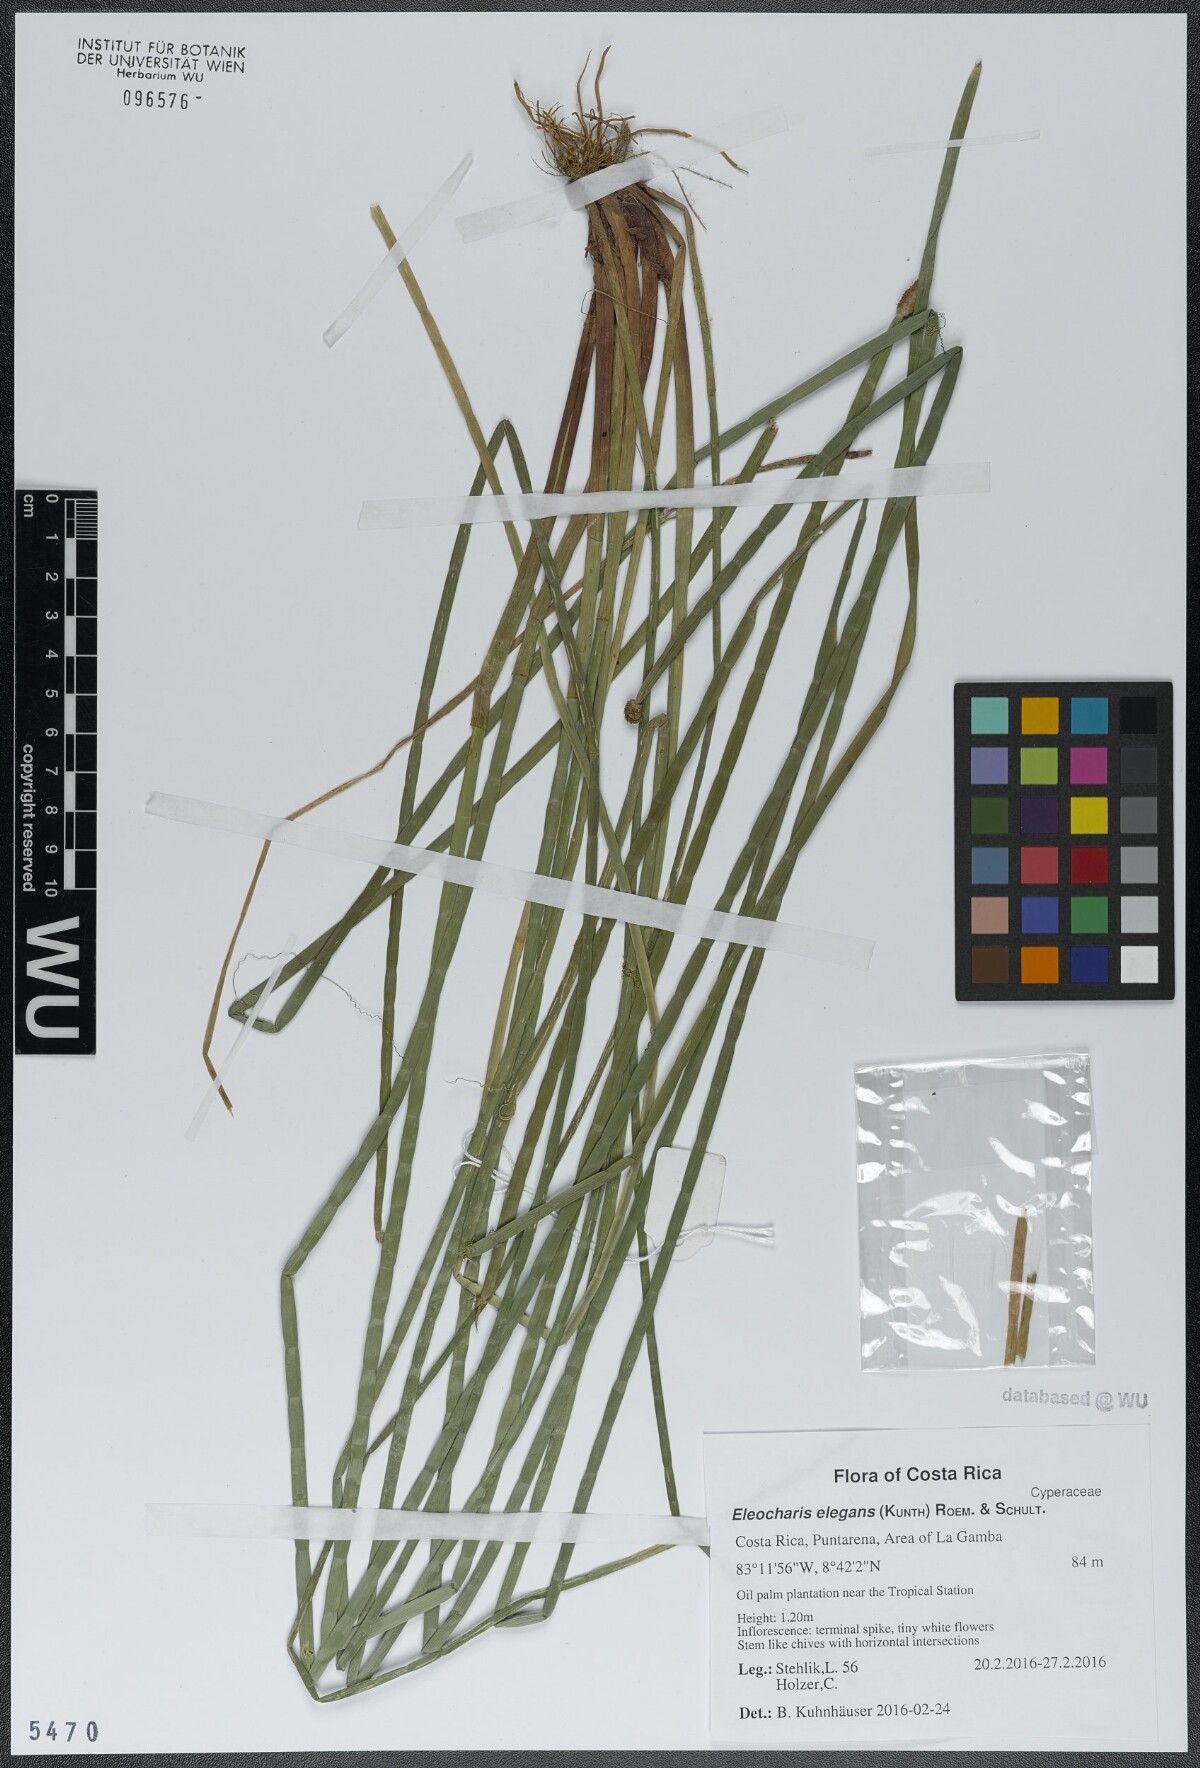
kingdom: Plantae
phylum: Tracheophyta
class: Liliopsida
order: Poales
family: Cyperaceae
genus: Eleocharis
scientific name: Eleocharis elegans
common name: Elegant spike-rush
